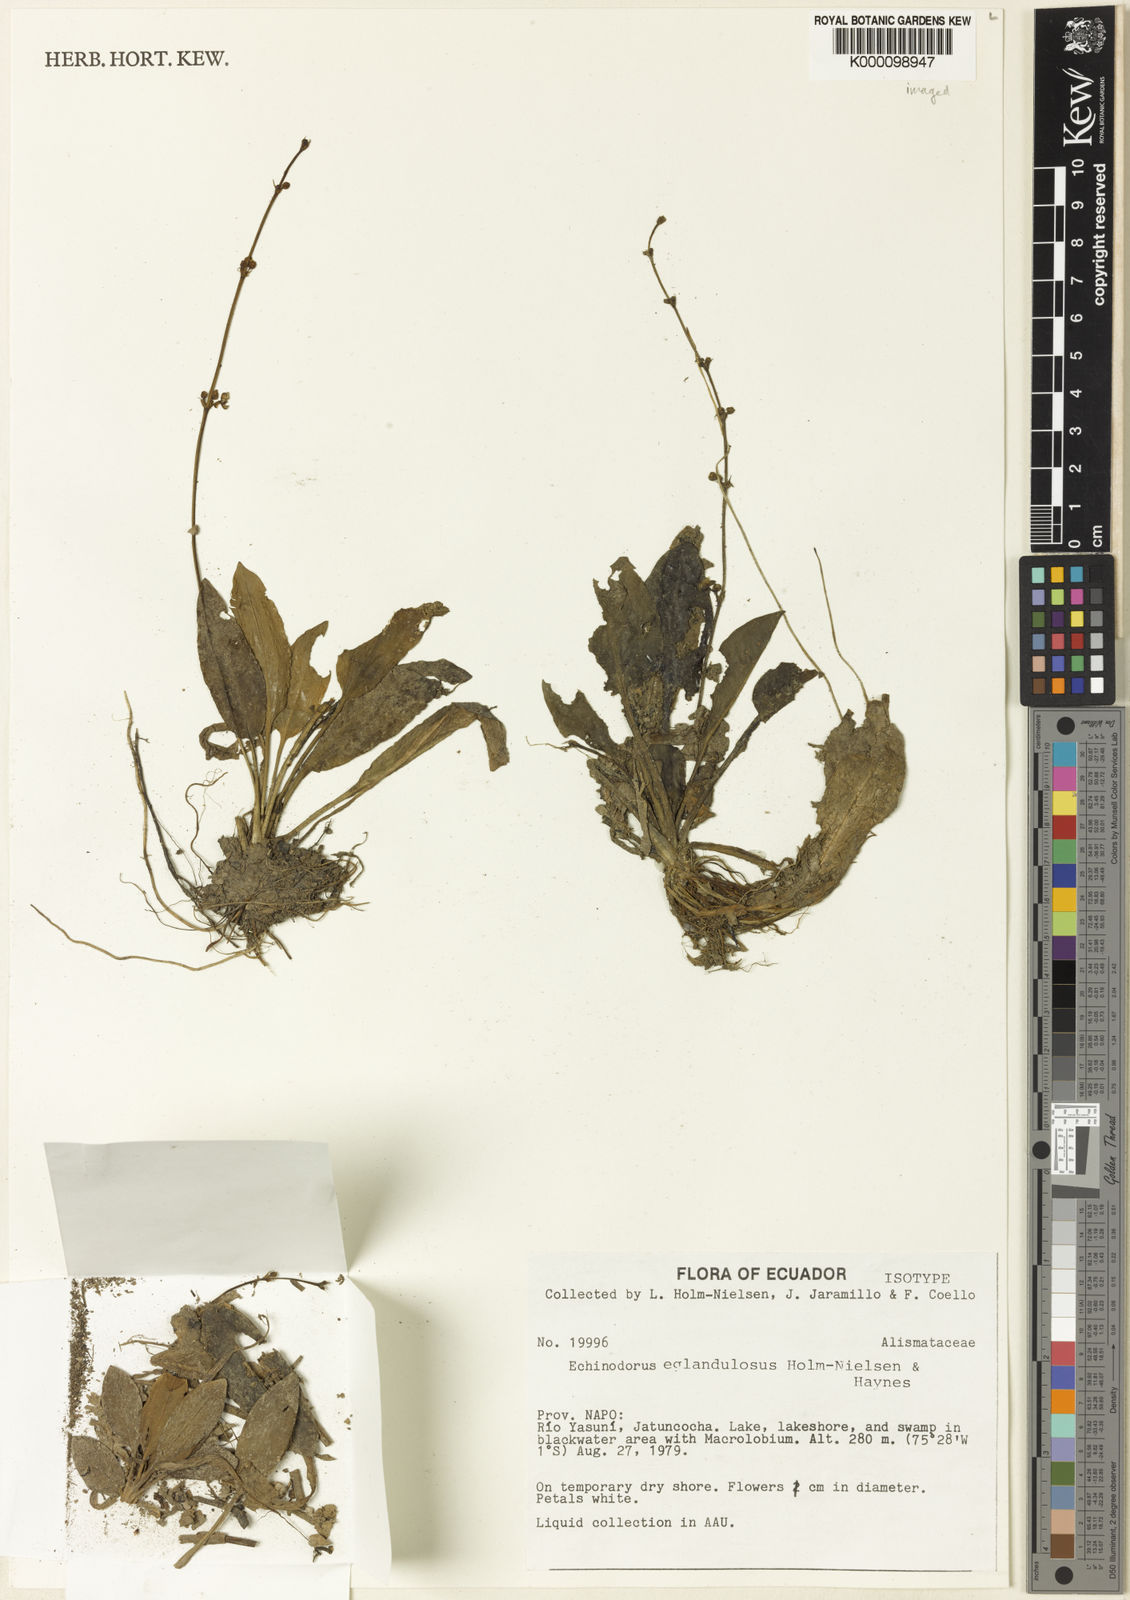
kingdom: Plantae
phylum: Tracheophyta
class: Liliopsida
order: Alismatales
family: Alismataceae
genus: Aquarius
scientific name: Aquarius grisebachii
